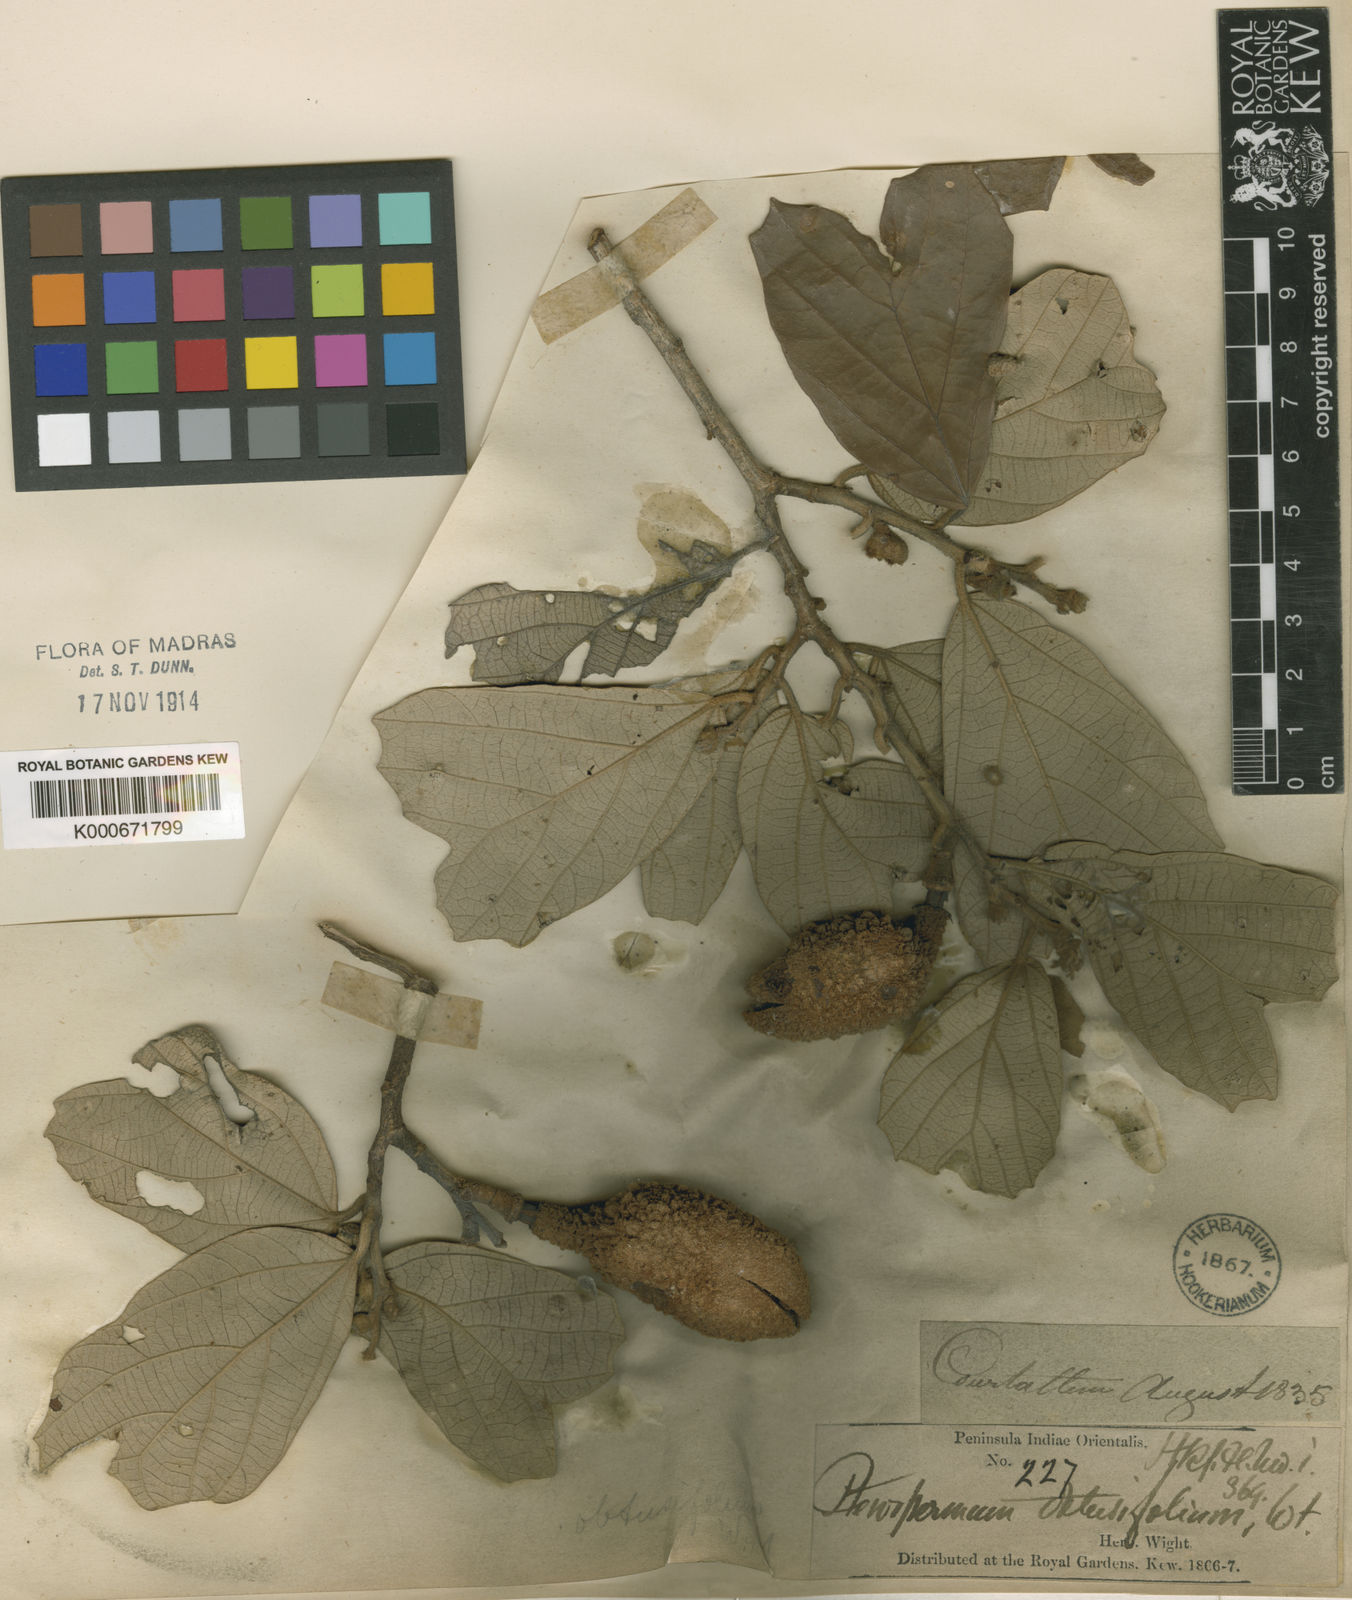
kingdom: Plantae
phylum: Tracheophyta
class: Magnoliopsida
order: Malvales
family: Malvaceae
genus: Pterospermum
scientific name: Pterospermum obtusifolium
